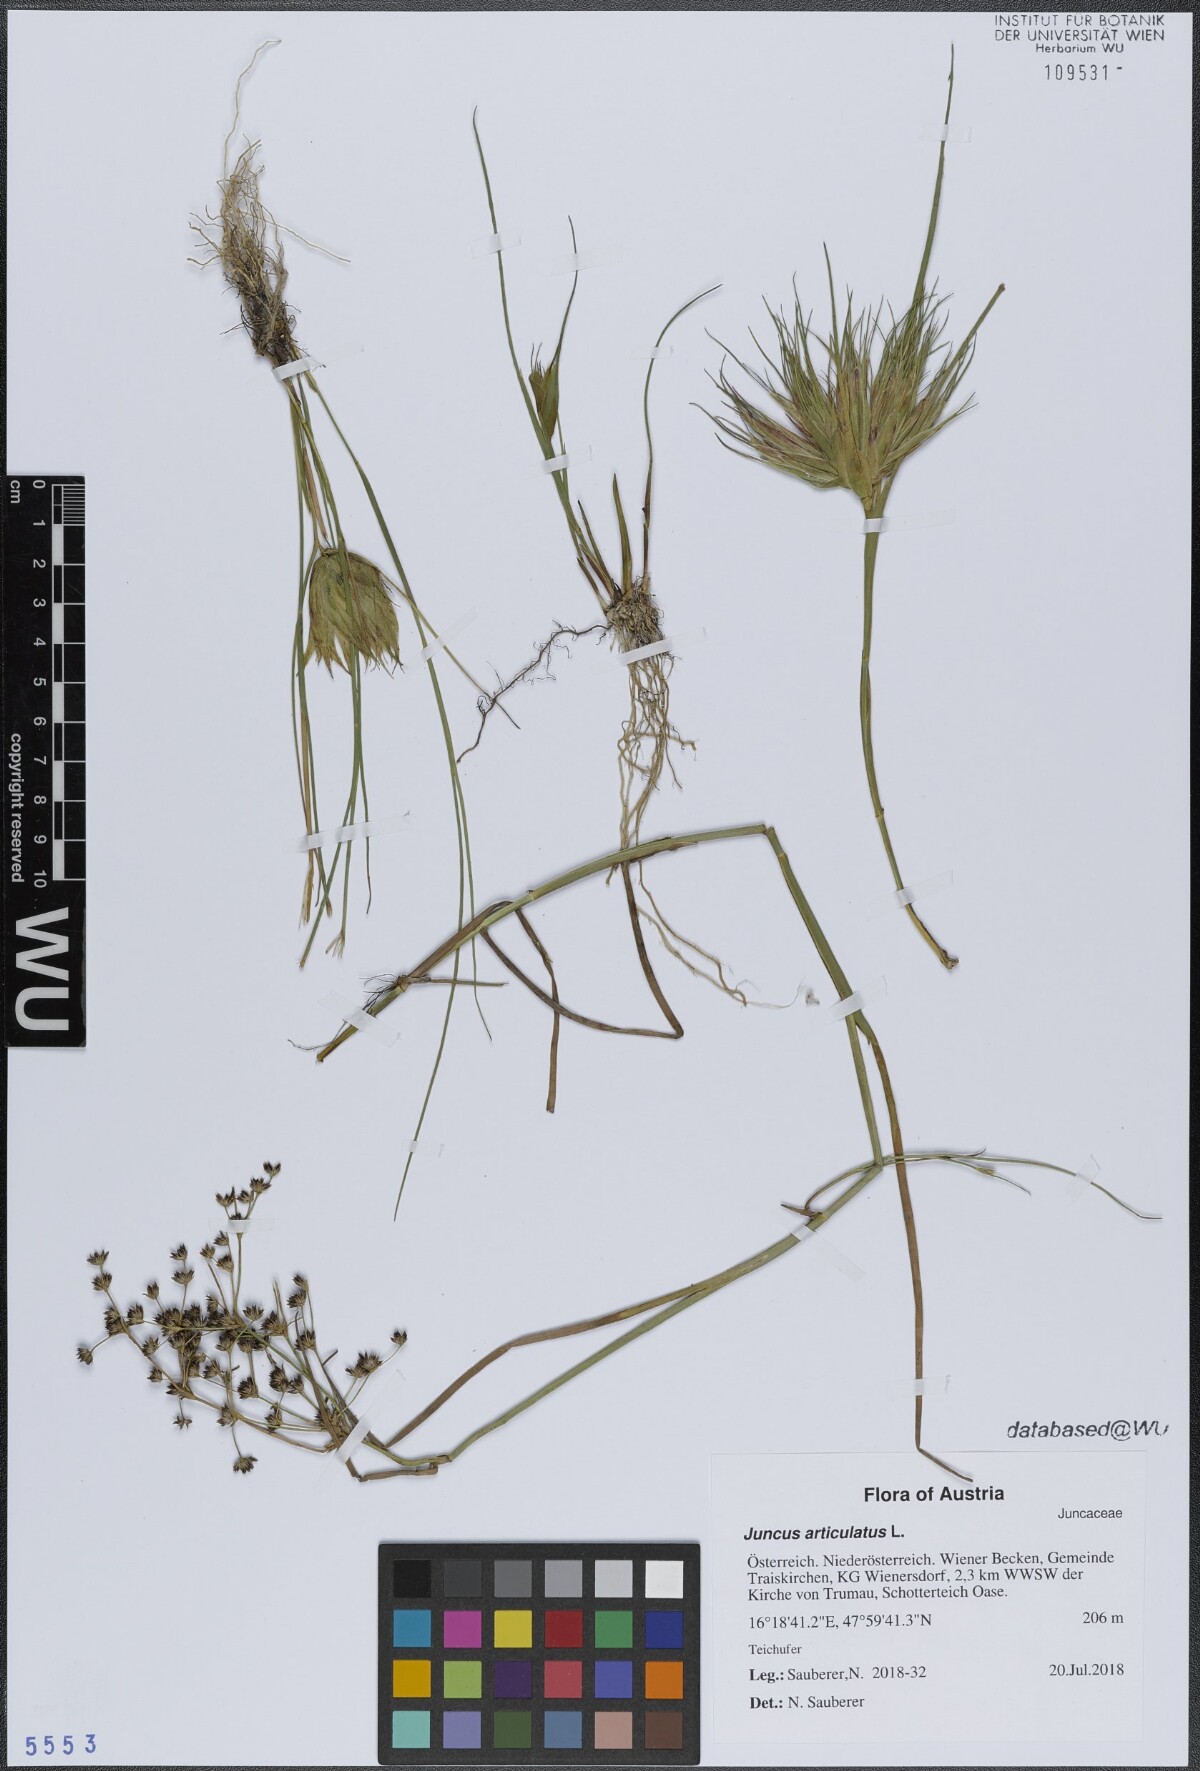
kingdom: Plantae
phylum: Tracheophyta
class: Liliopsida
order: Poales
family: Juncaceae
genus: Juncus
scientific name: Juncus articulatus
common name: Jointed rush
